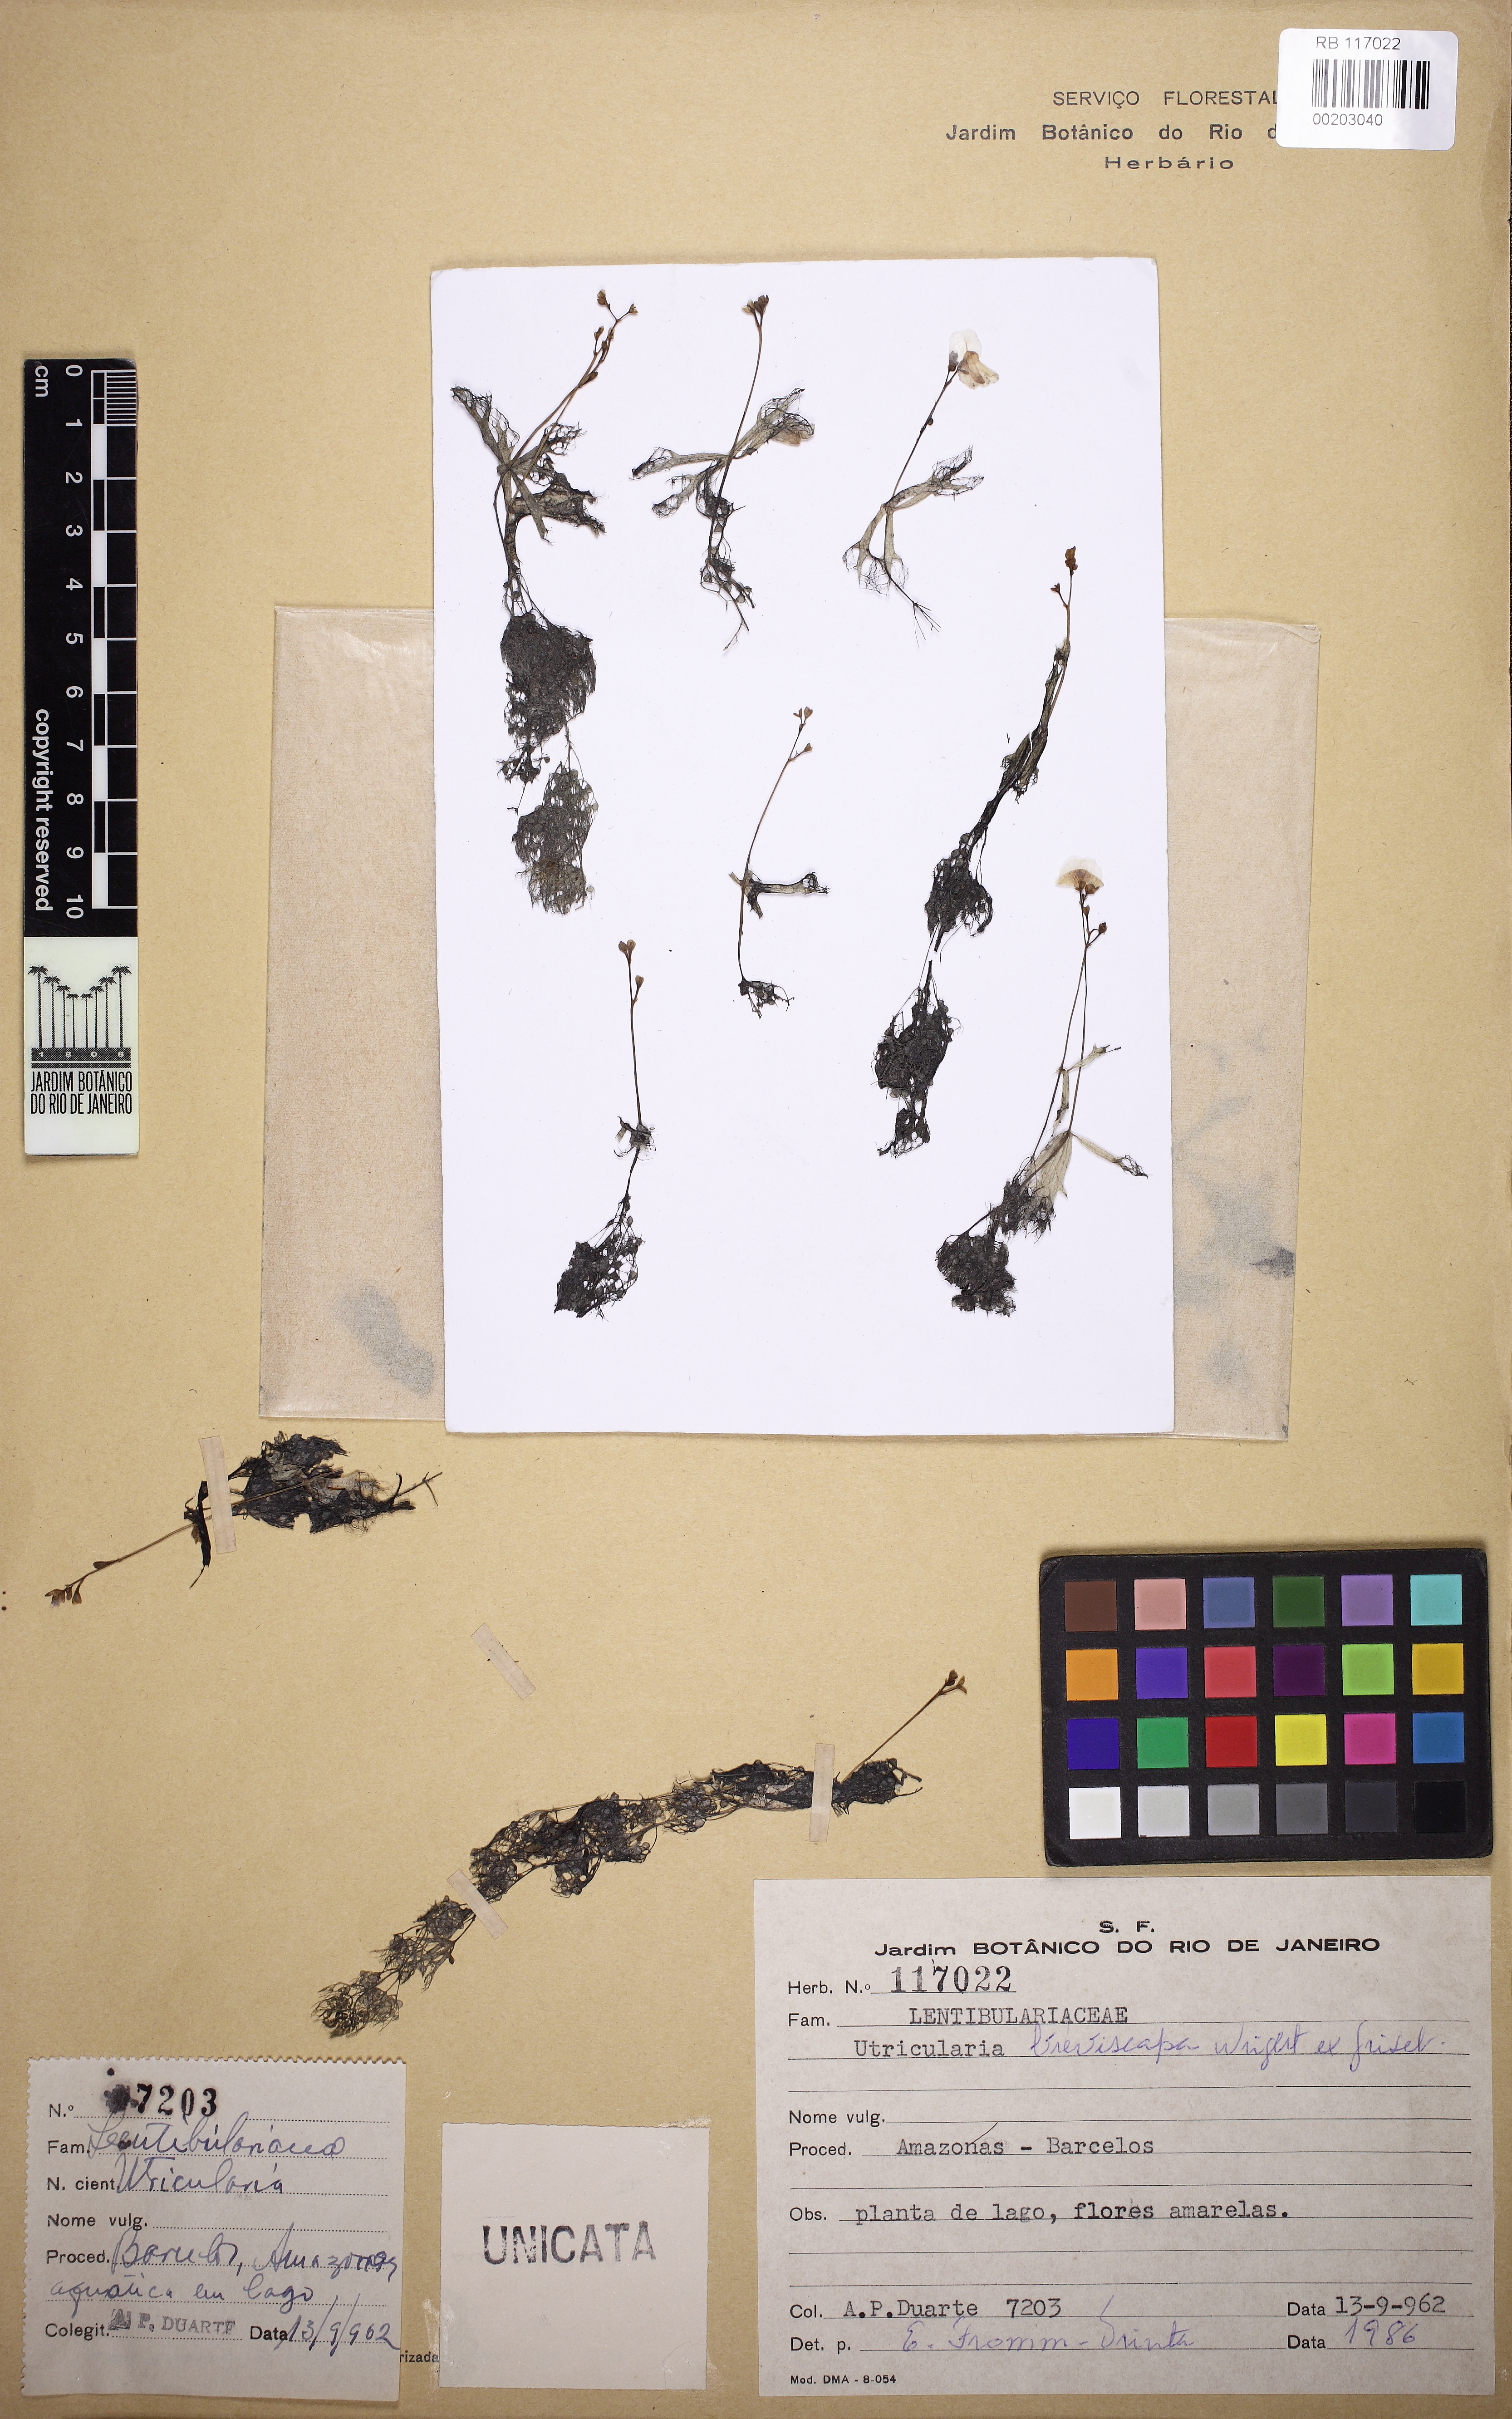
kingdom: Plantae
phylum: Tracheophyta
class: Magnoliopsida
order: Lamiales
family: Lentibulariaceae
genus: Utricularia
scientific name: Utricularia breviscapa
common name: Bladderwort
